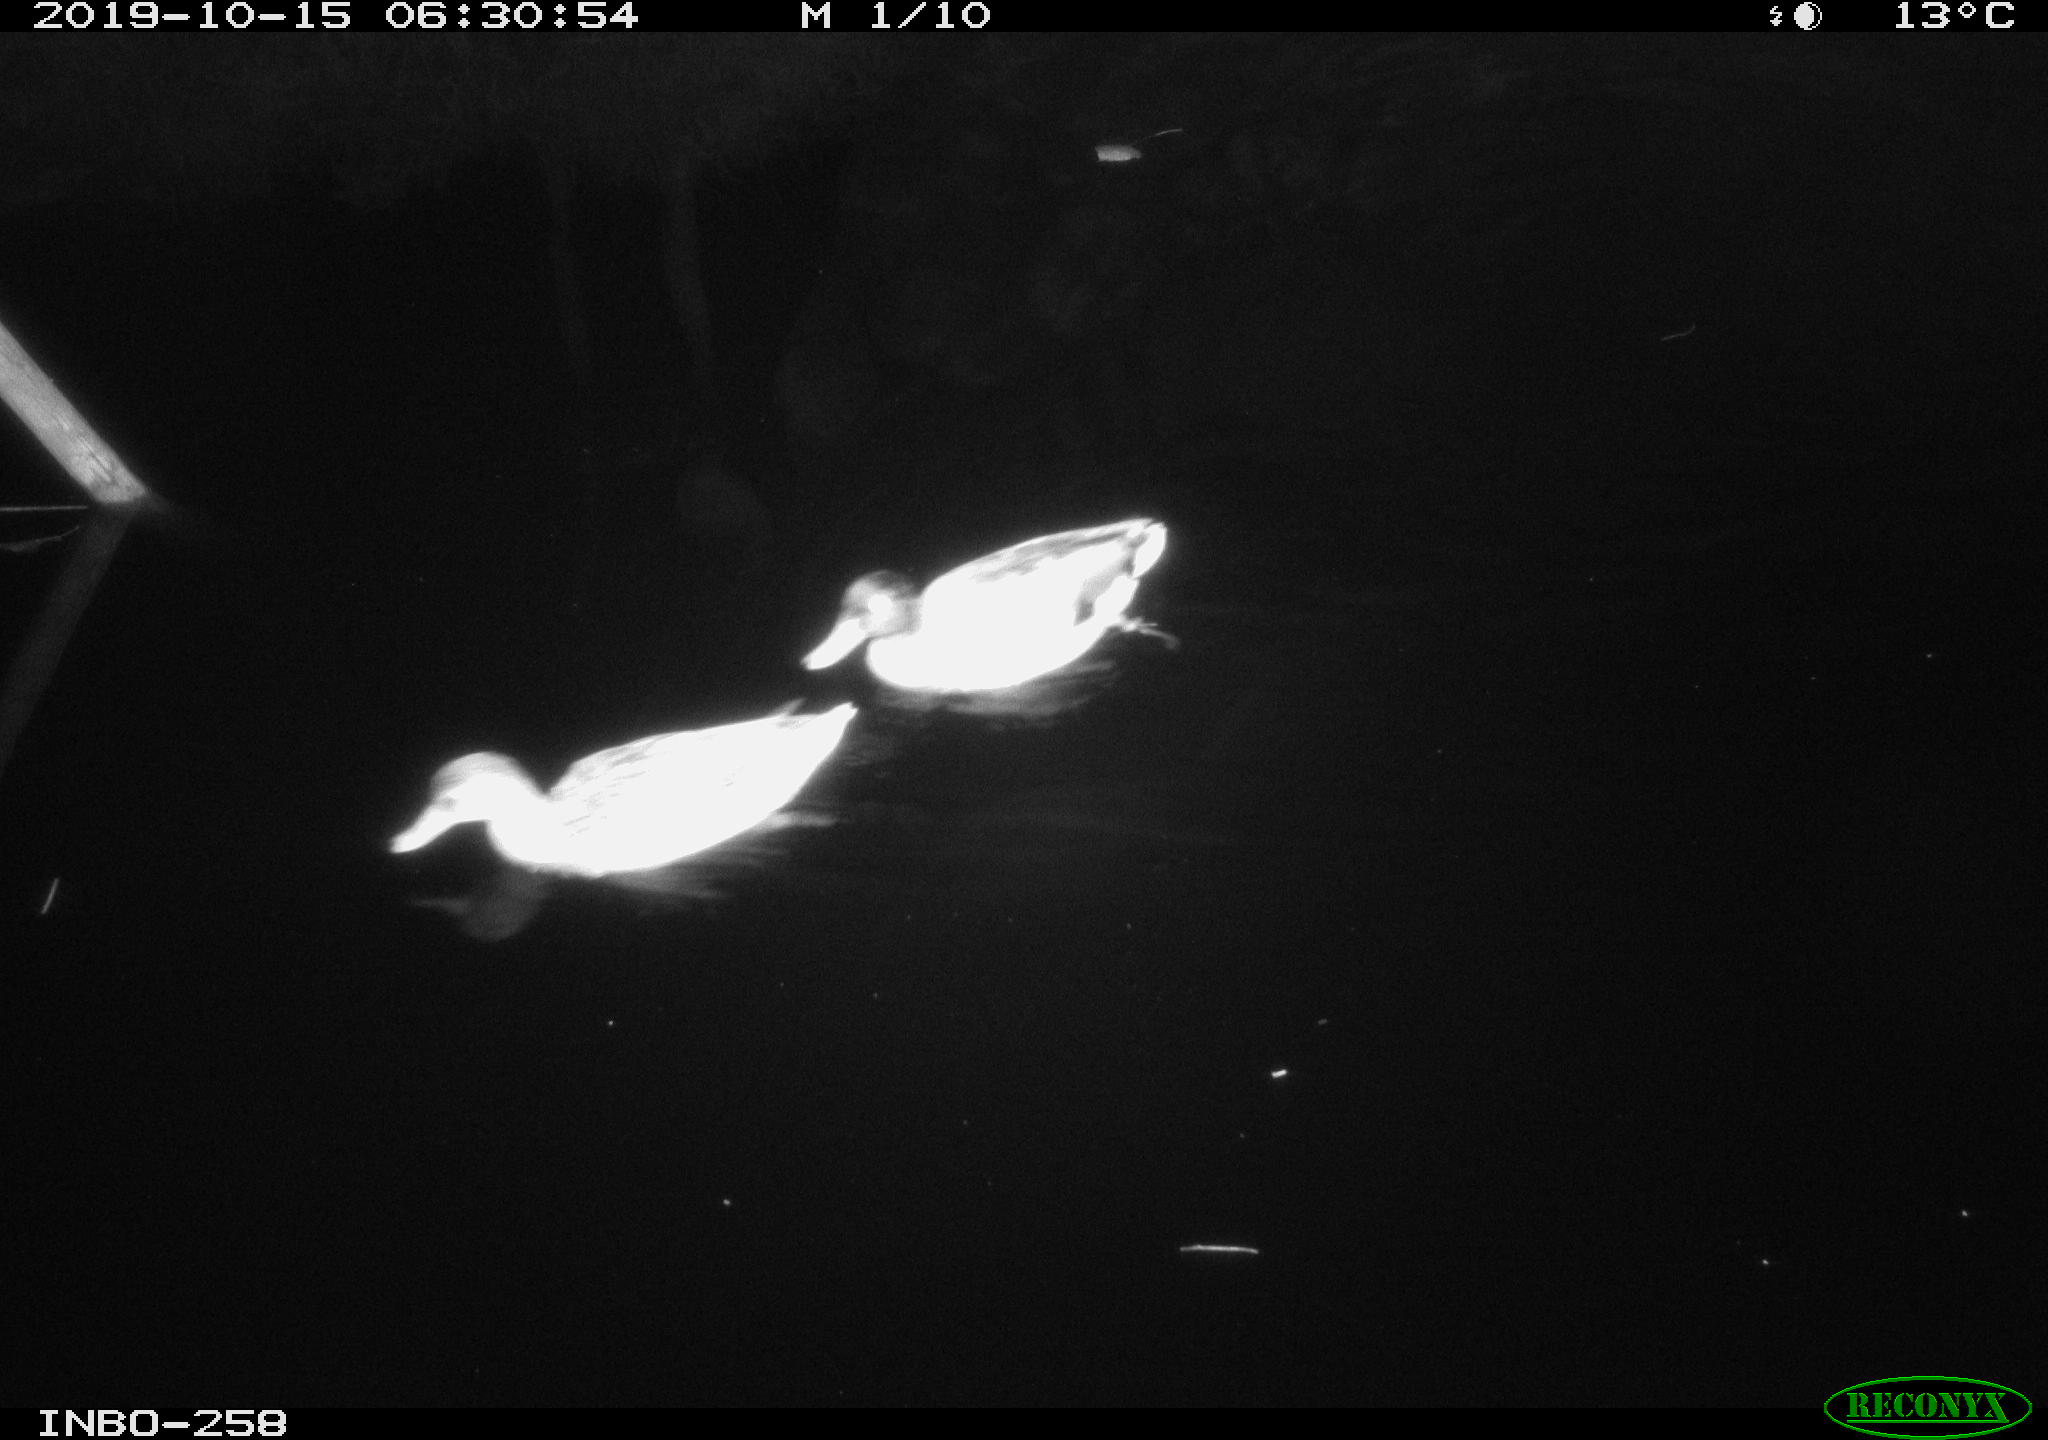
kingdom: Animalia
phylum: Chordata
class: Aves
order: Anseriformes
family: Anatidae
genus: Anas
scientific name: Anas platyrhynchos
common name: Mallard
